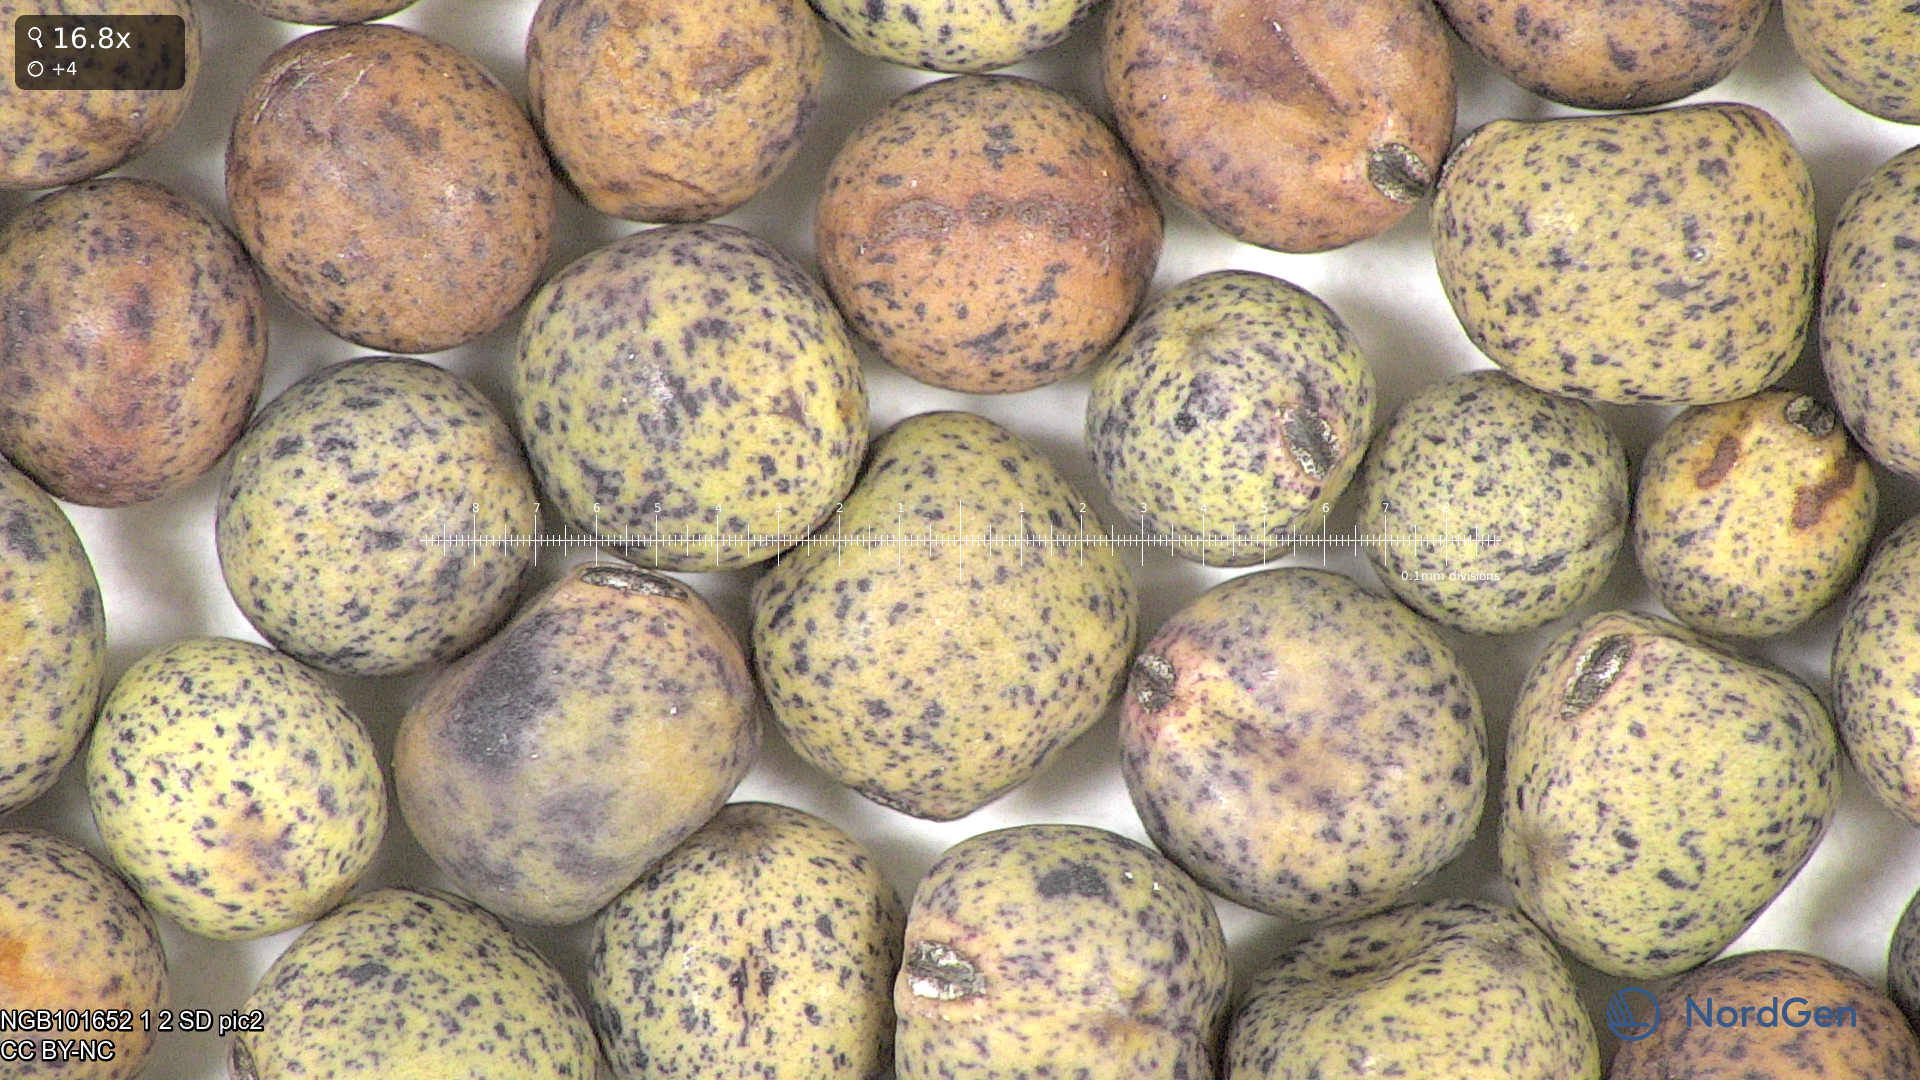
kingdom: Plantae
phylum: Tracheophyta
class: Magnoliopsida
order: Fabales
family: Fabaceae
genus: Lathyrus
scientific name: Lathyrus oleraceus
